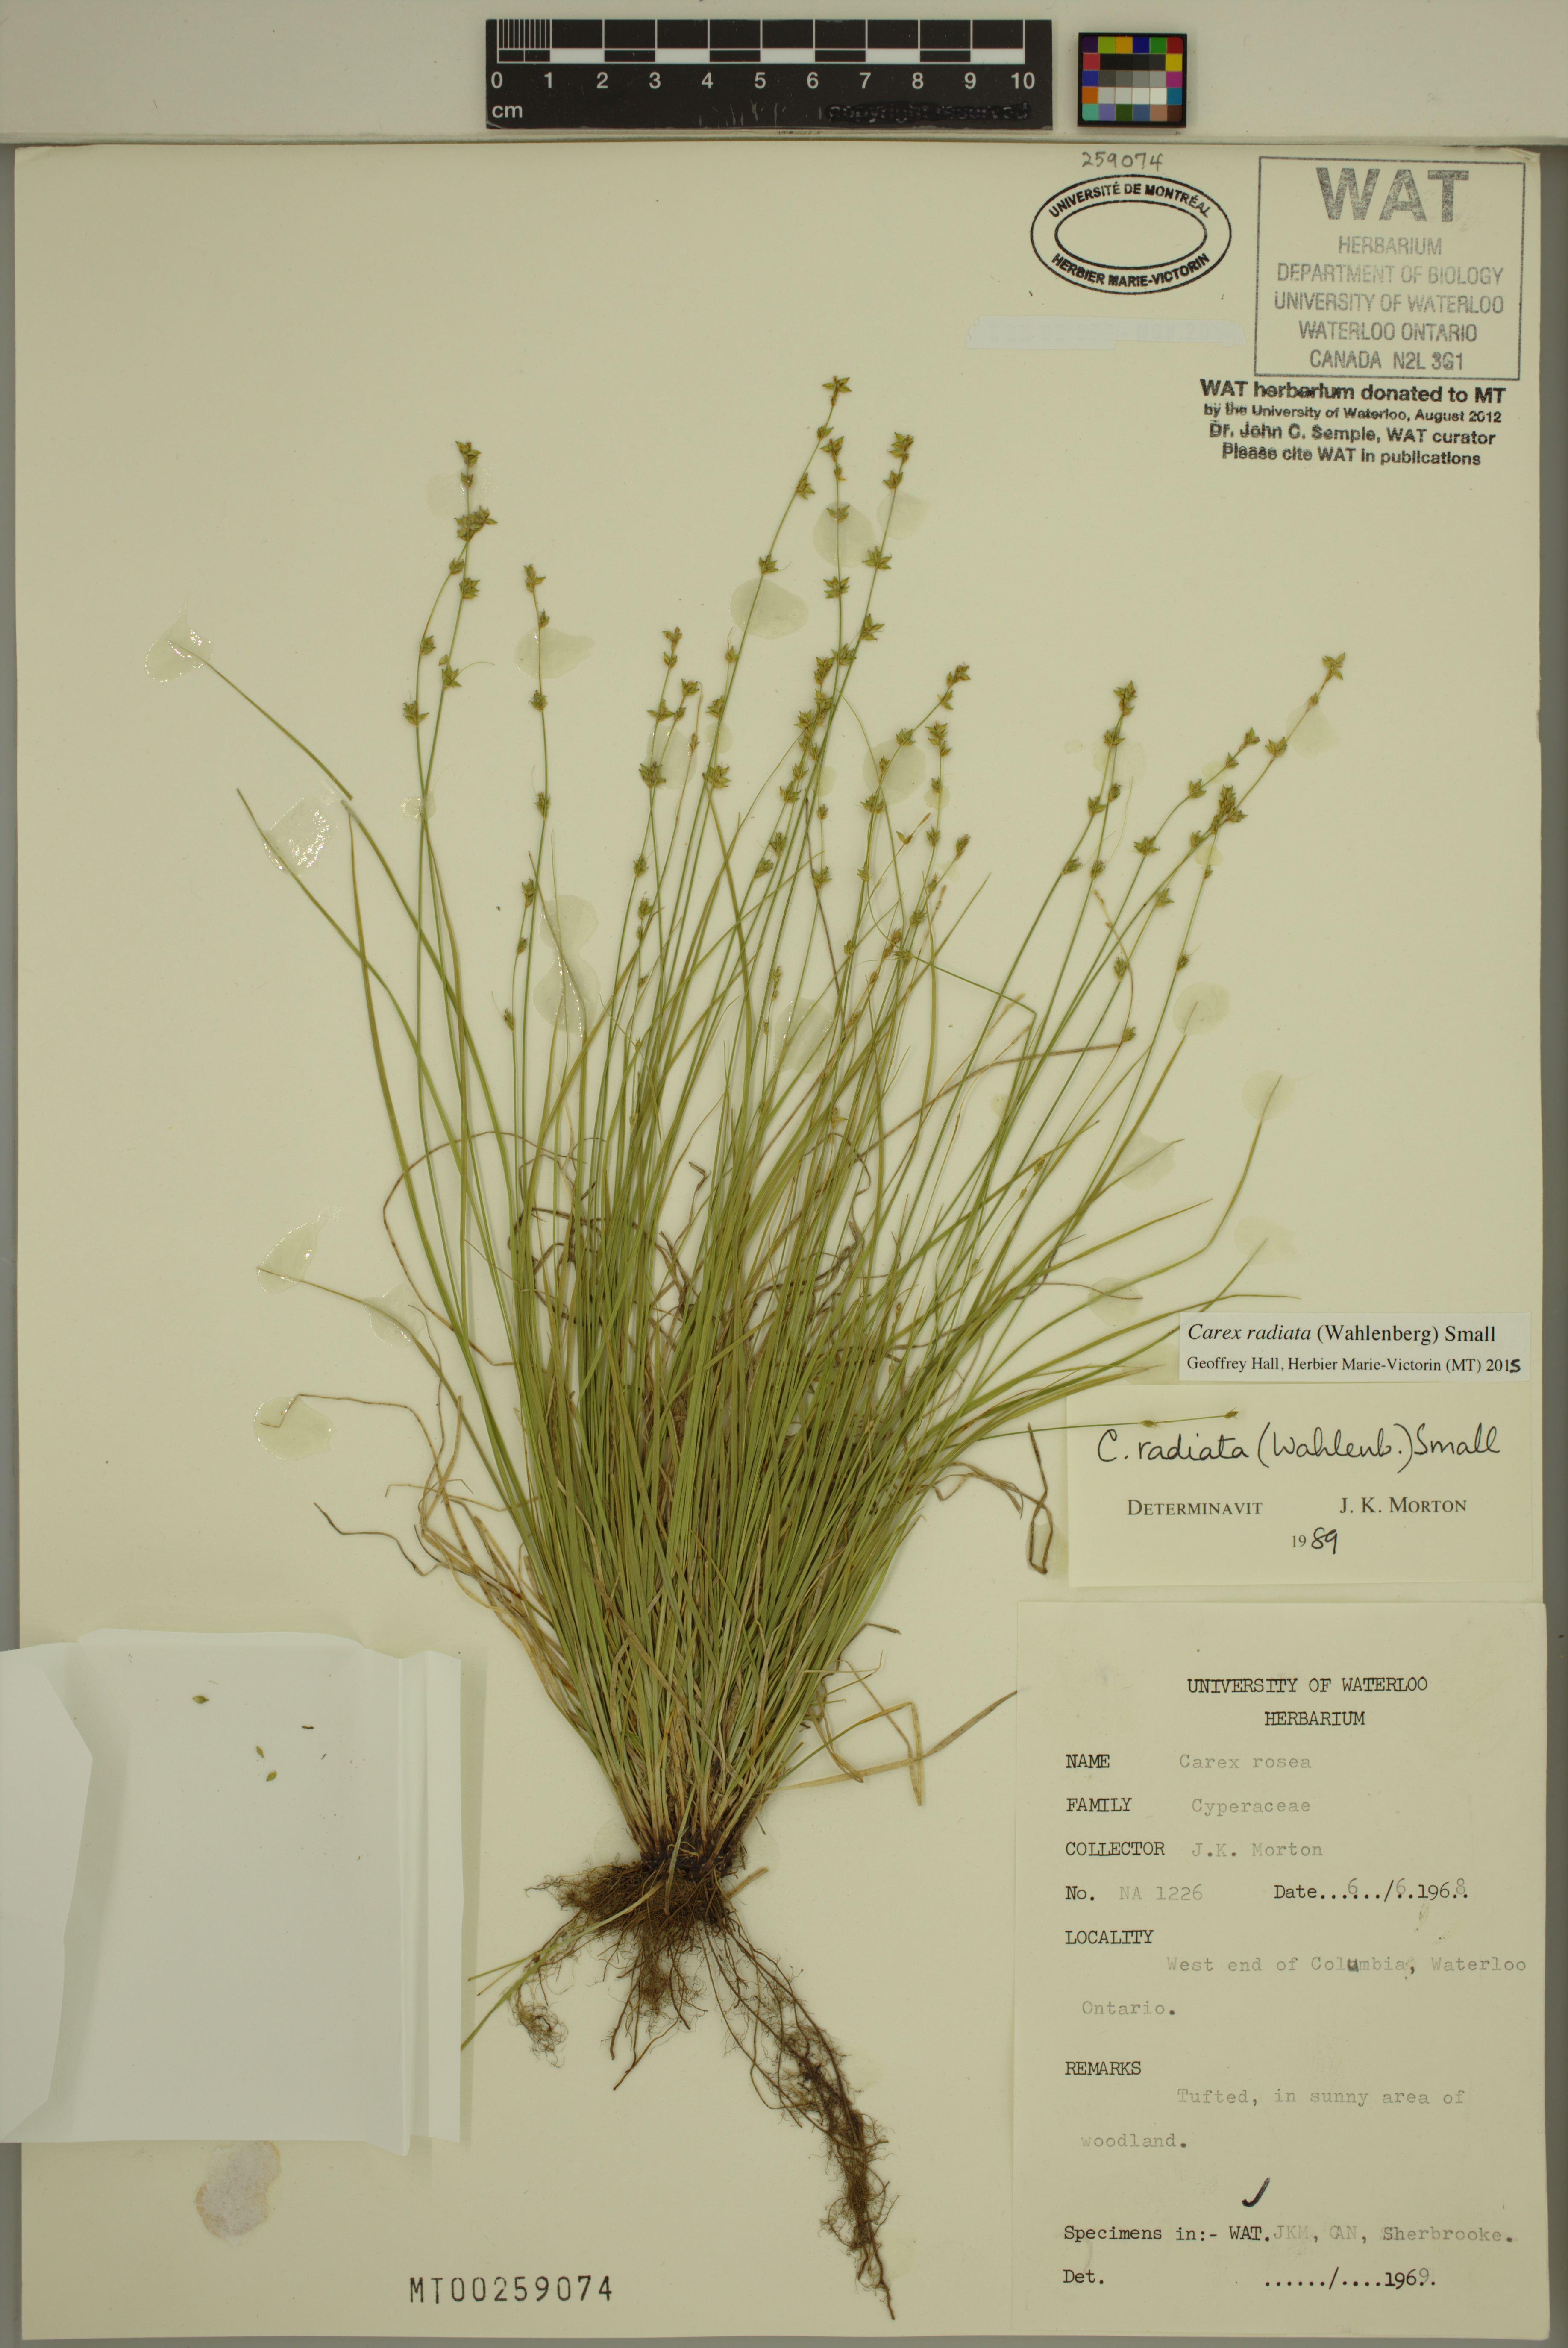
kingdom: Plantae
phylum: Tracheophyta
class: Liliopsida
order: Poales
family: Cyperaceae
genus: Carex
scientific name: Carex radiata
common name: Eastern star sedge
